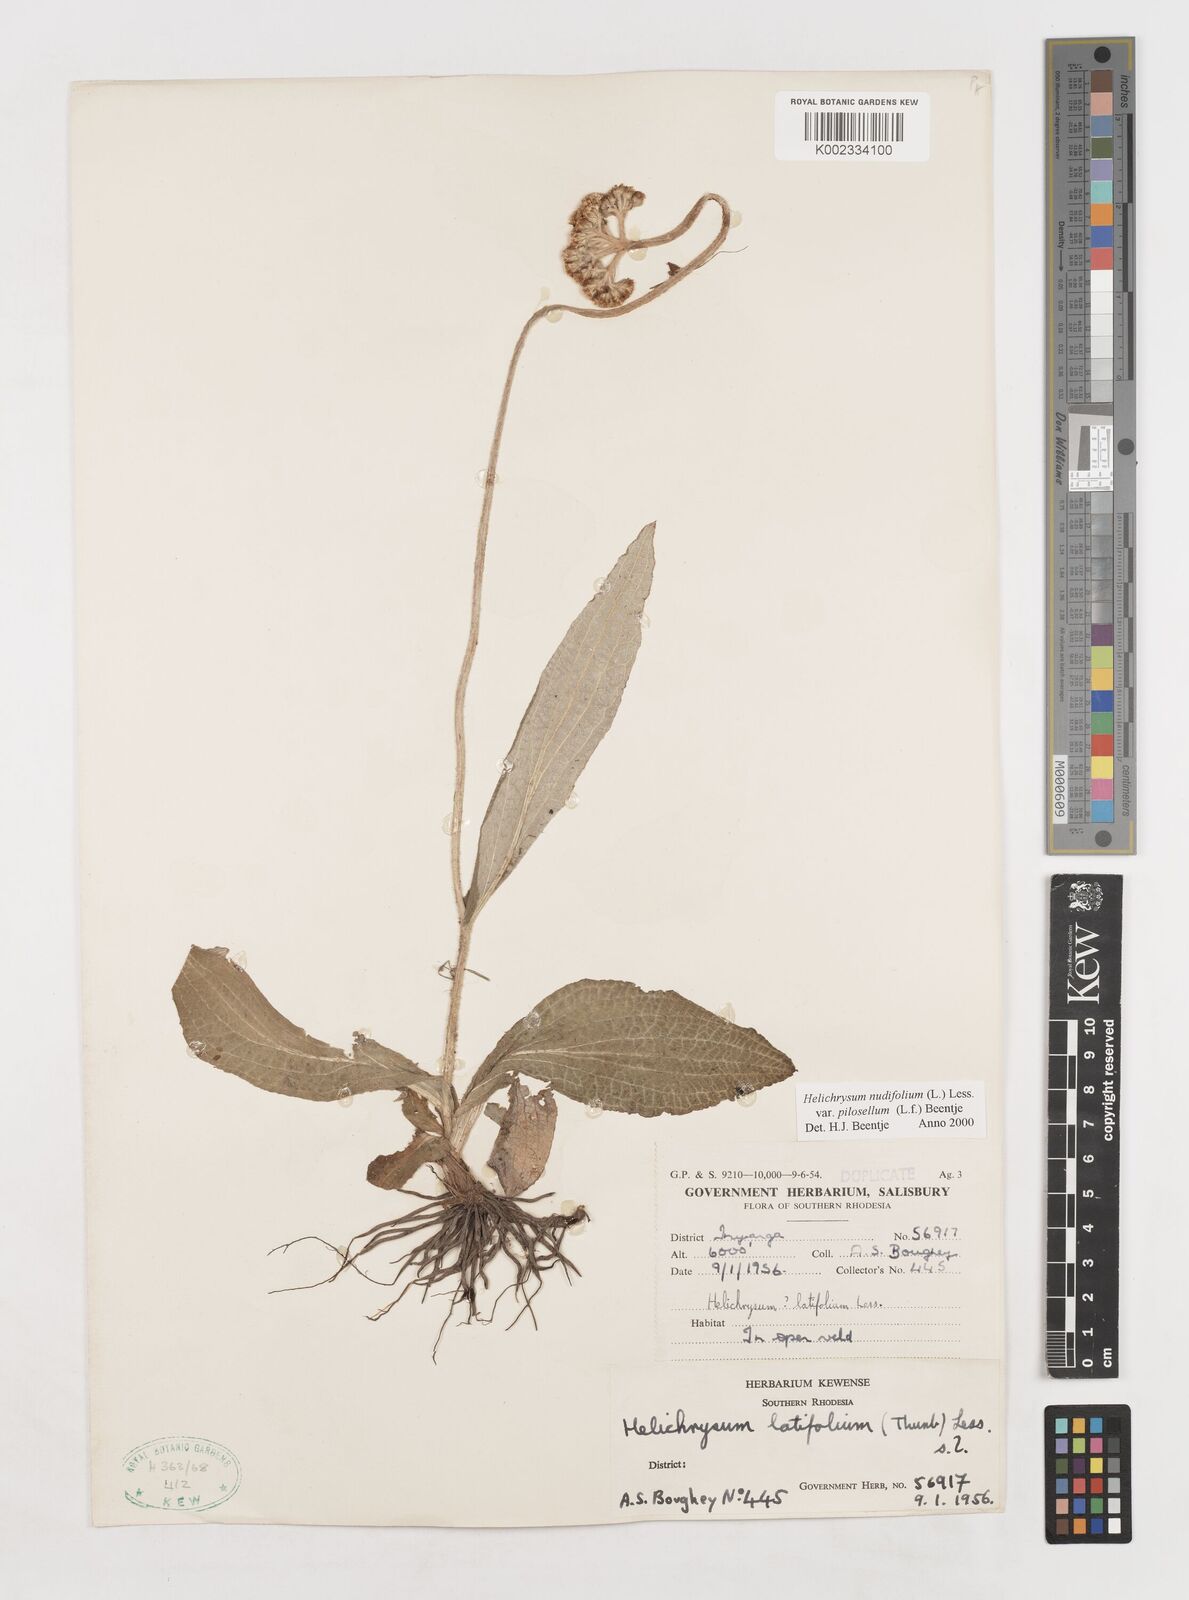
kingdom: Plantae
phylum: Tracheophyta
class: Magnoliopsida
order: Asterales
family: Asteraceae
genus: Helichrysum
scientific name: Helichrysum nudifolium
